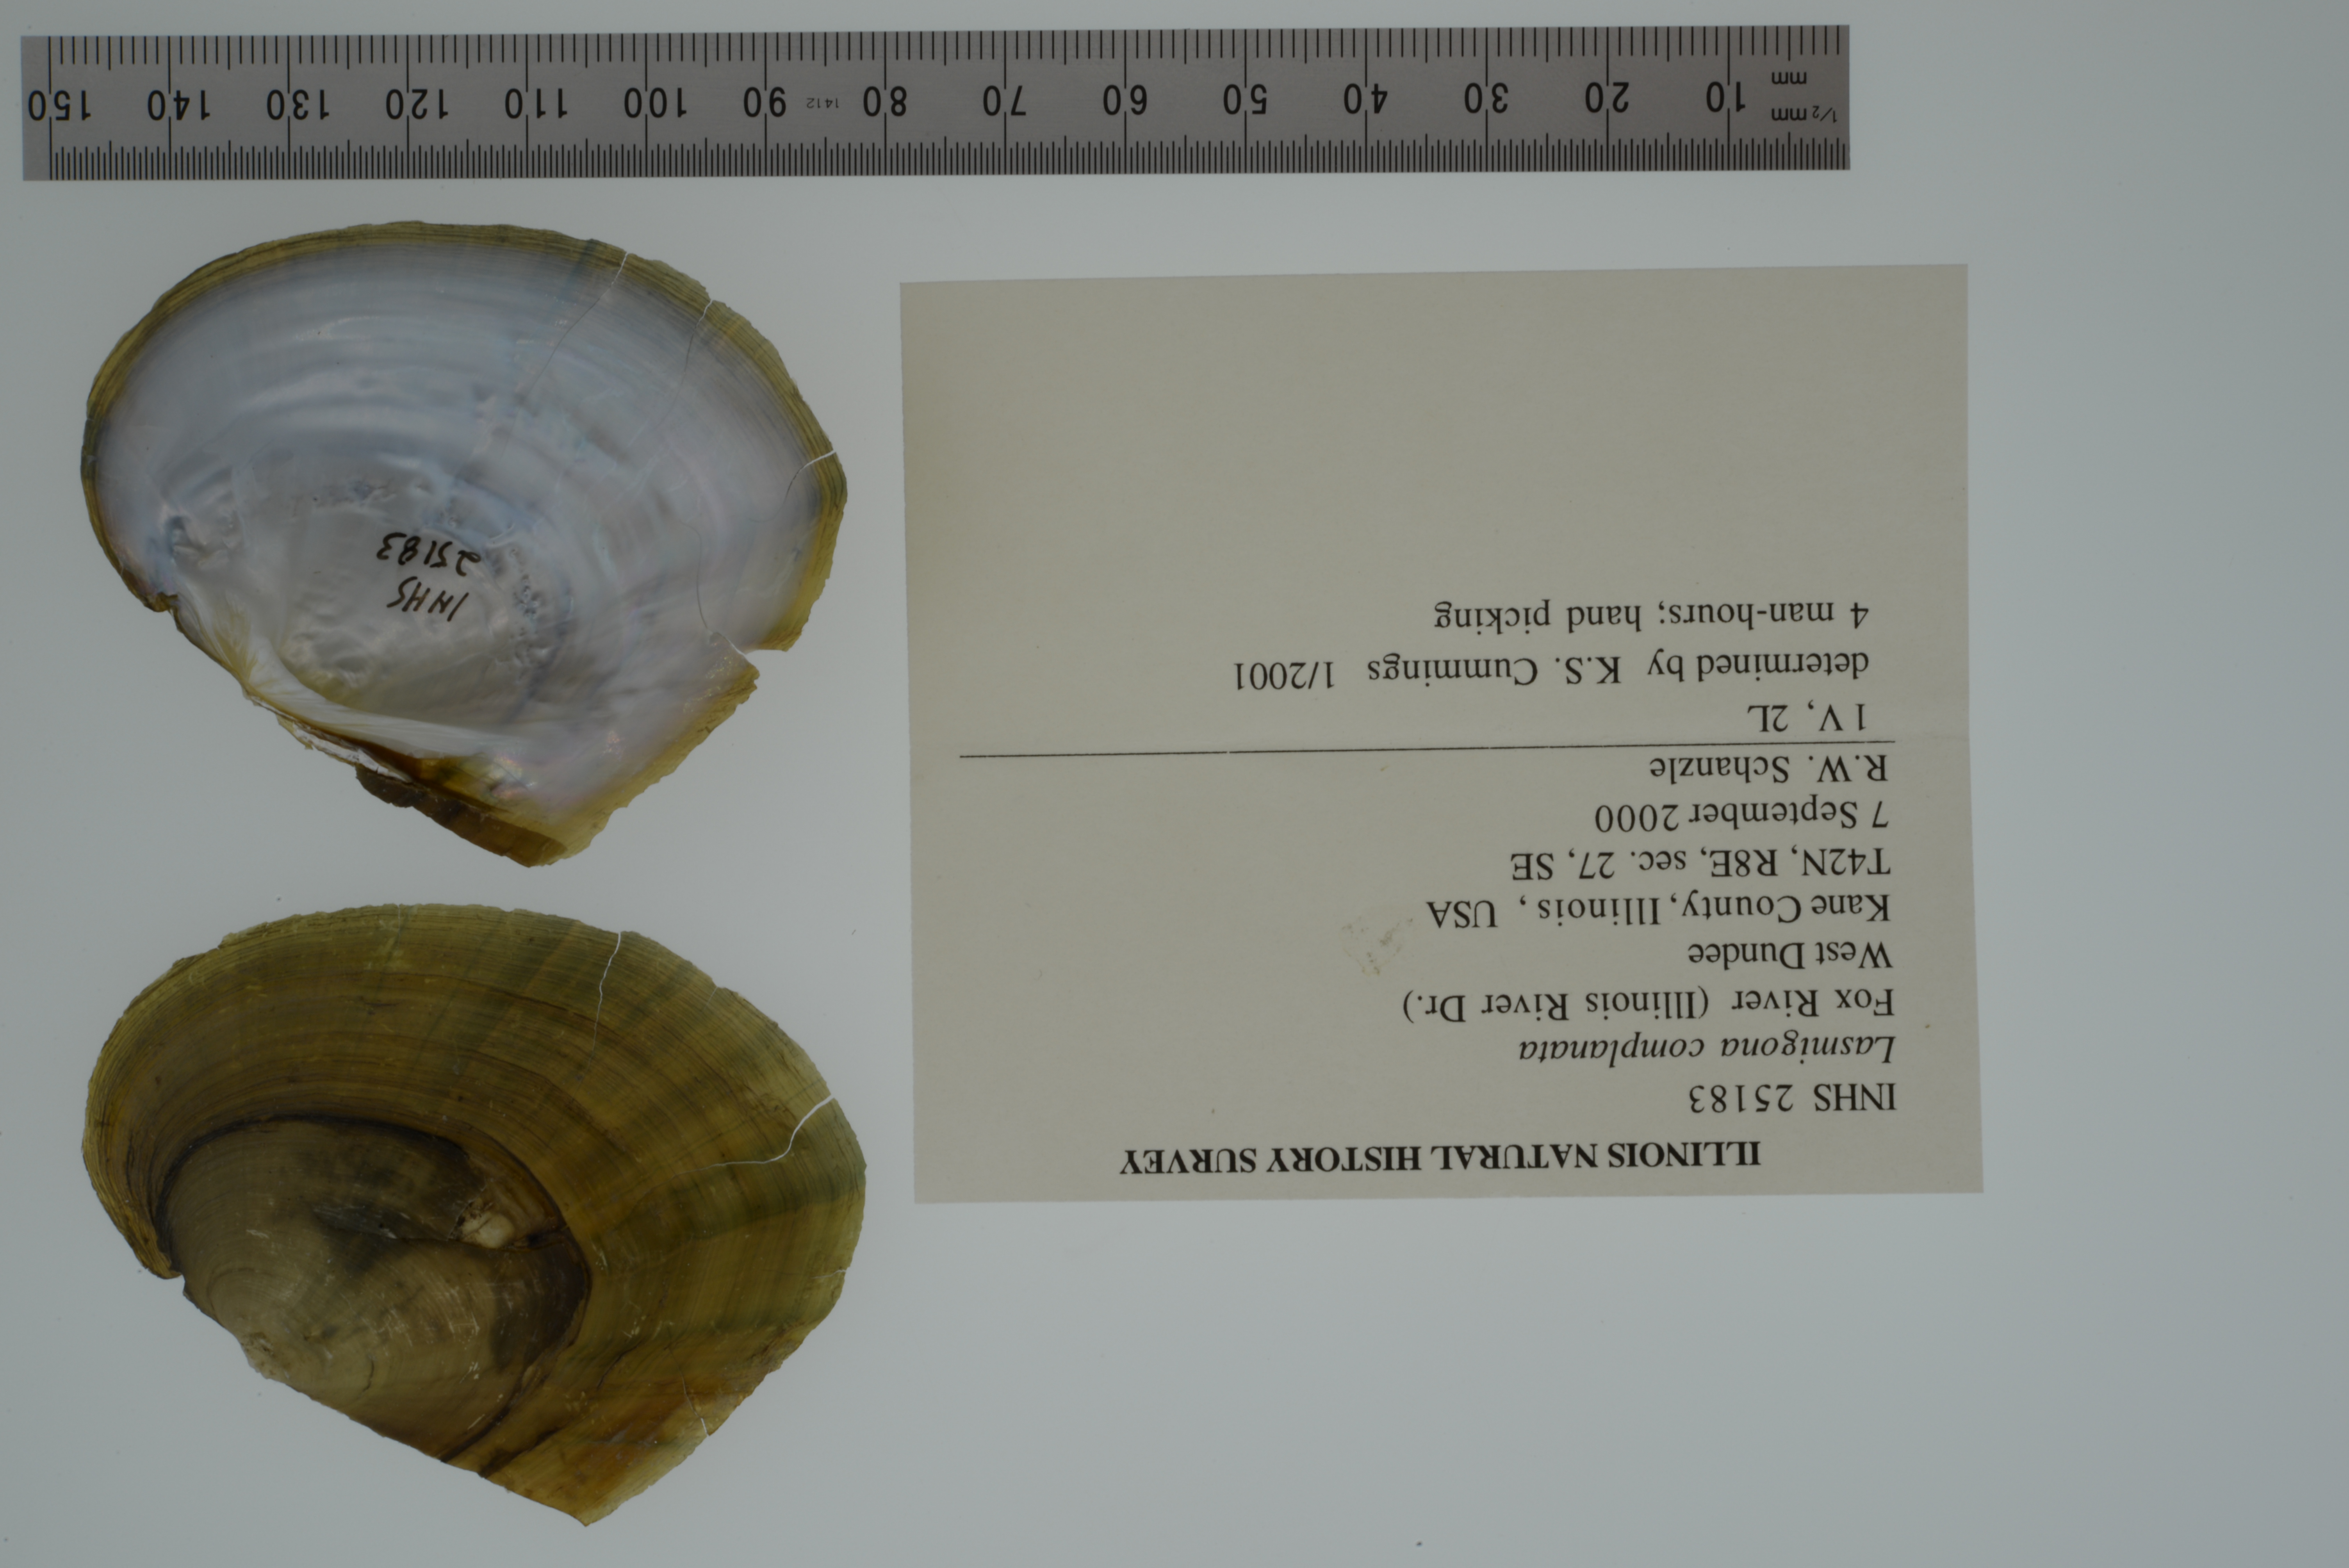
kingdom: Animalia
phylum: Mollusca
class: Bivalvia
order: Unionida
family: Unionidae
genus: Lasmigona
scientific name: Lasmigona complanata
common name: White heelsplitter
